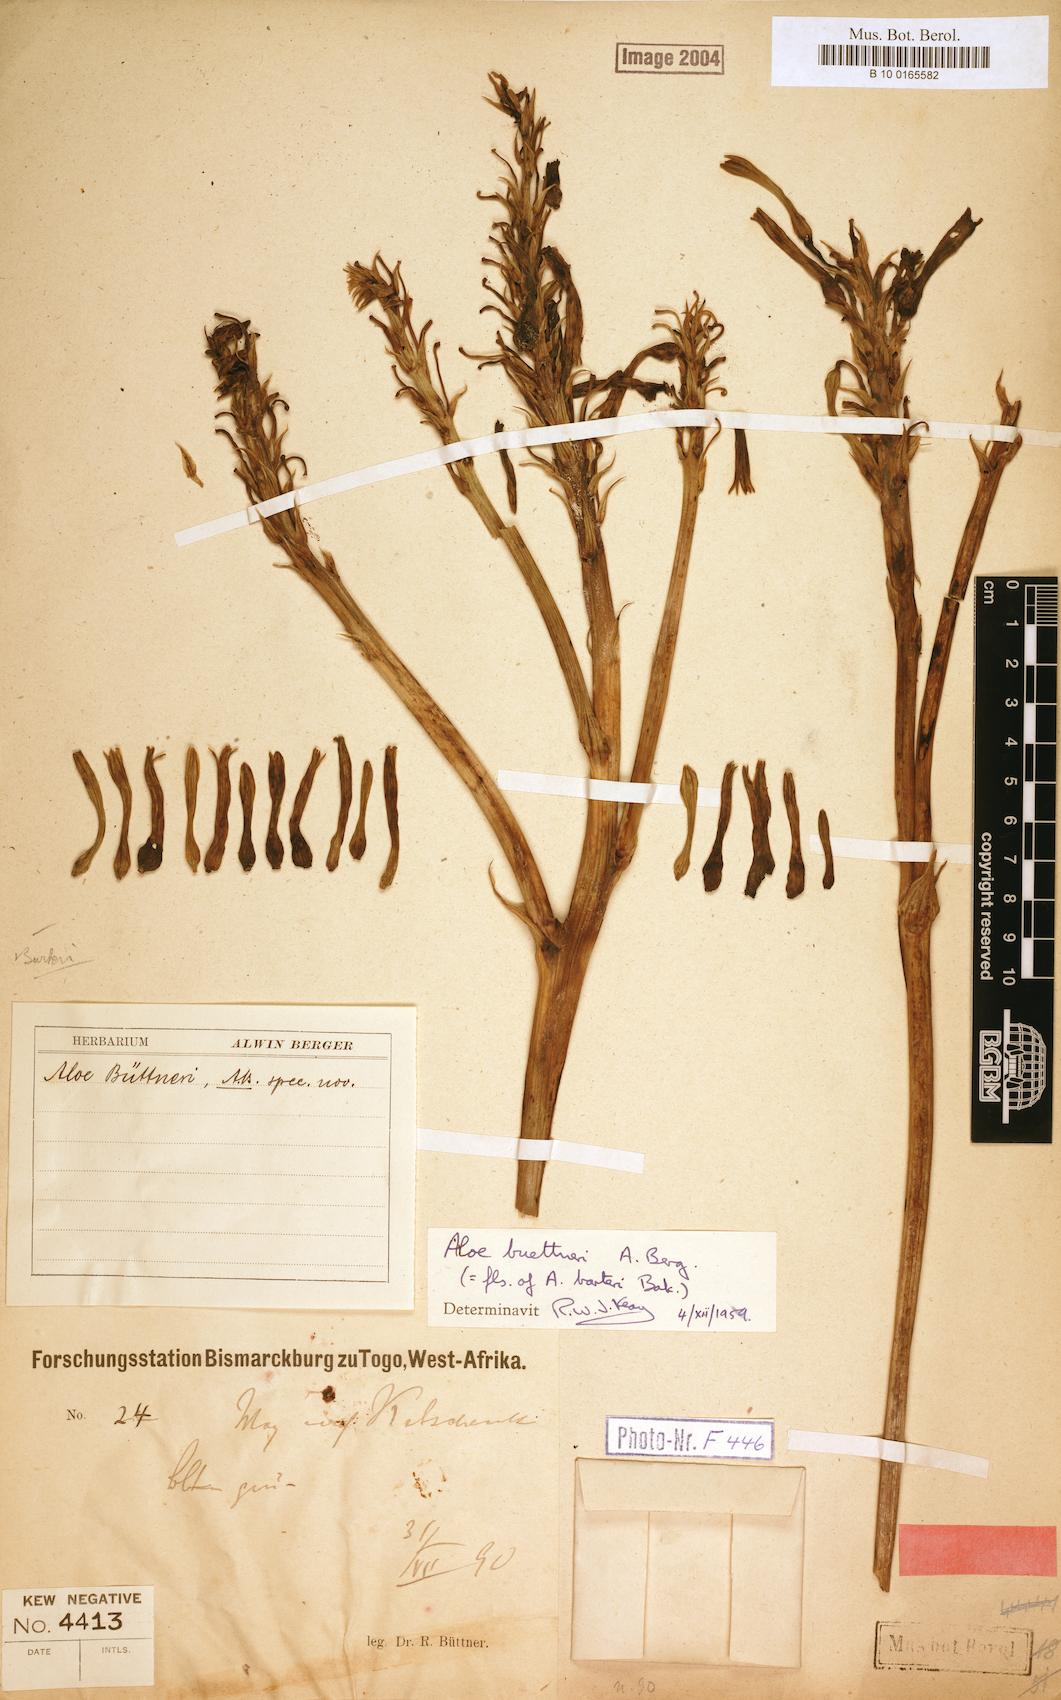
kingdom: Plantae
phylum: Tracheophyta
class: Liliopsida
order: Asparagales
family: Asphodelaceae
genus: Aloe
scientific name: Aloe buettneri
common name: West african aloe
